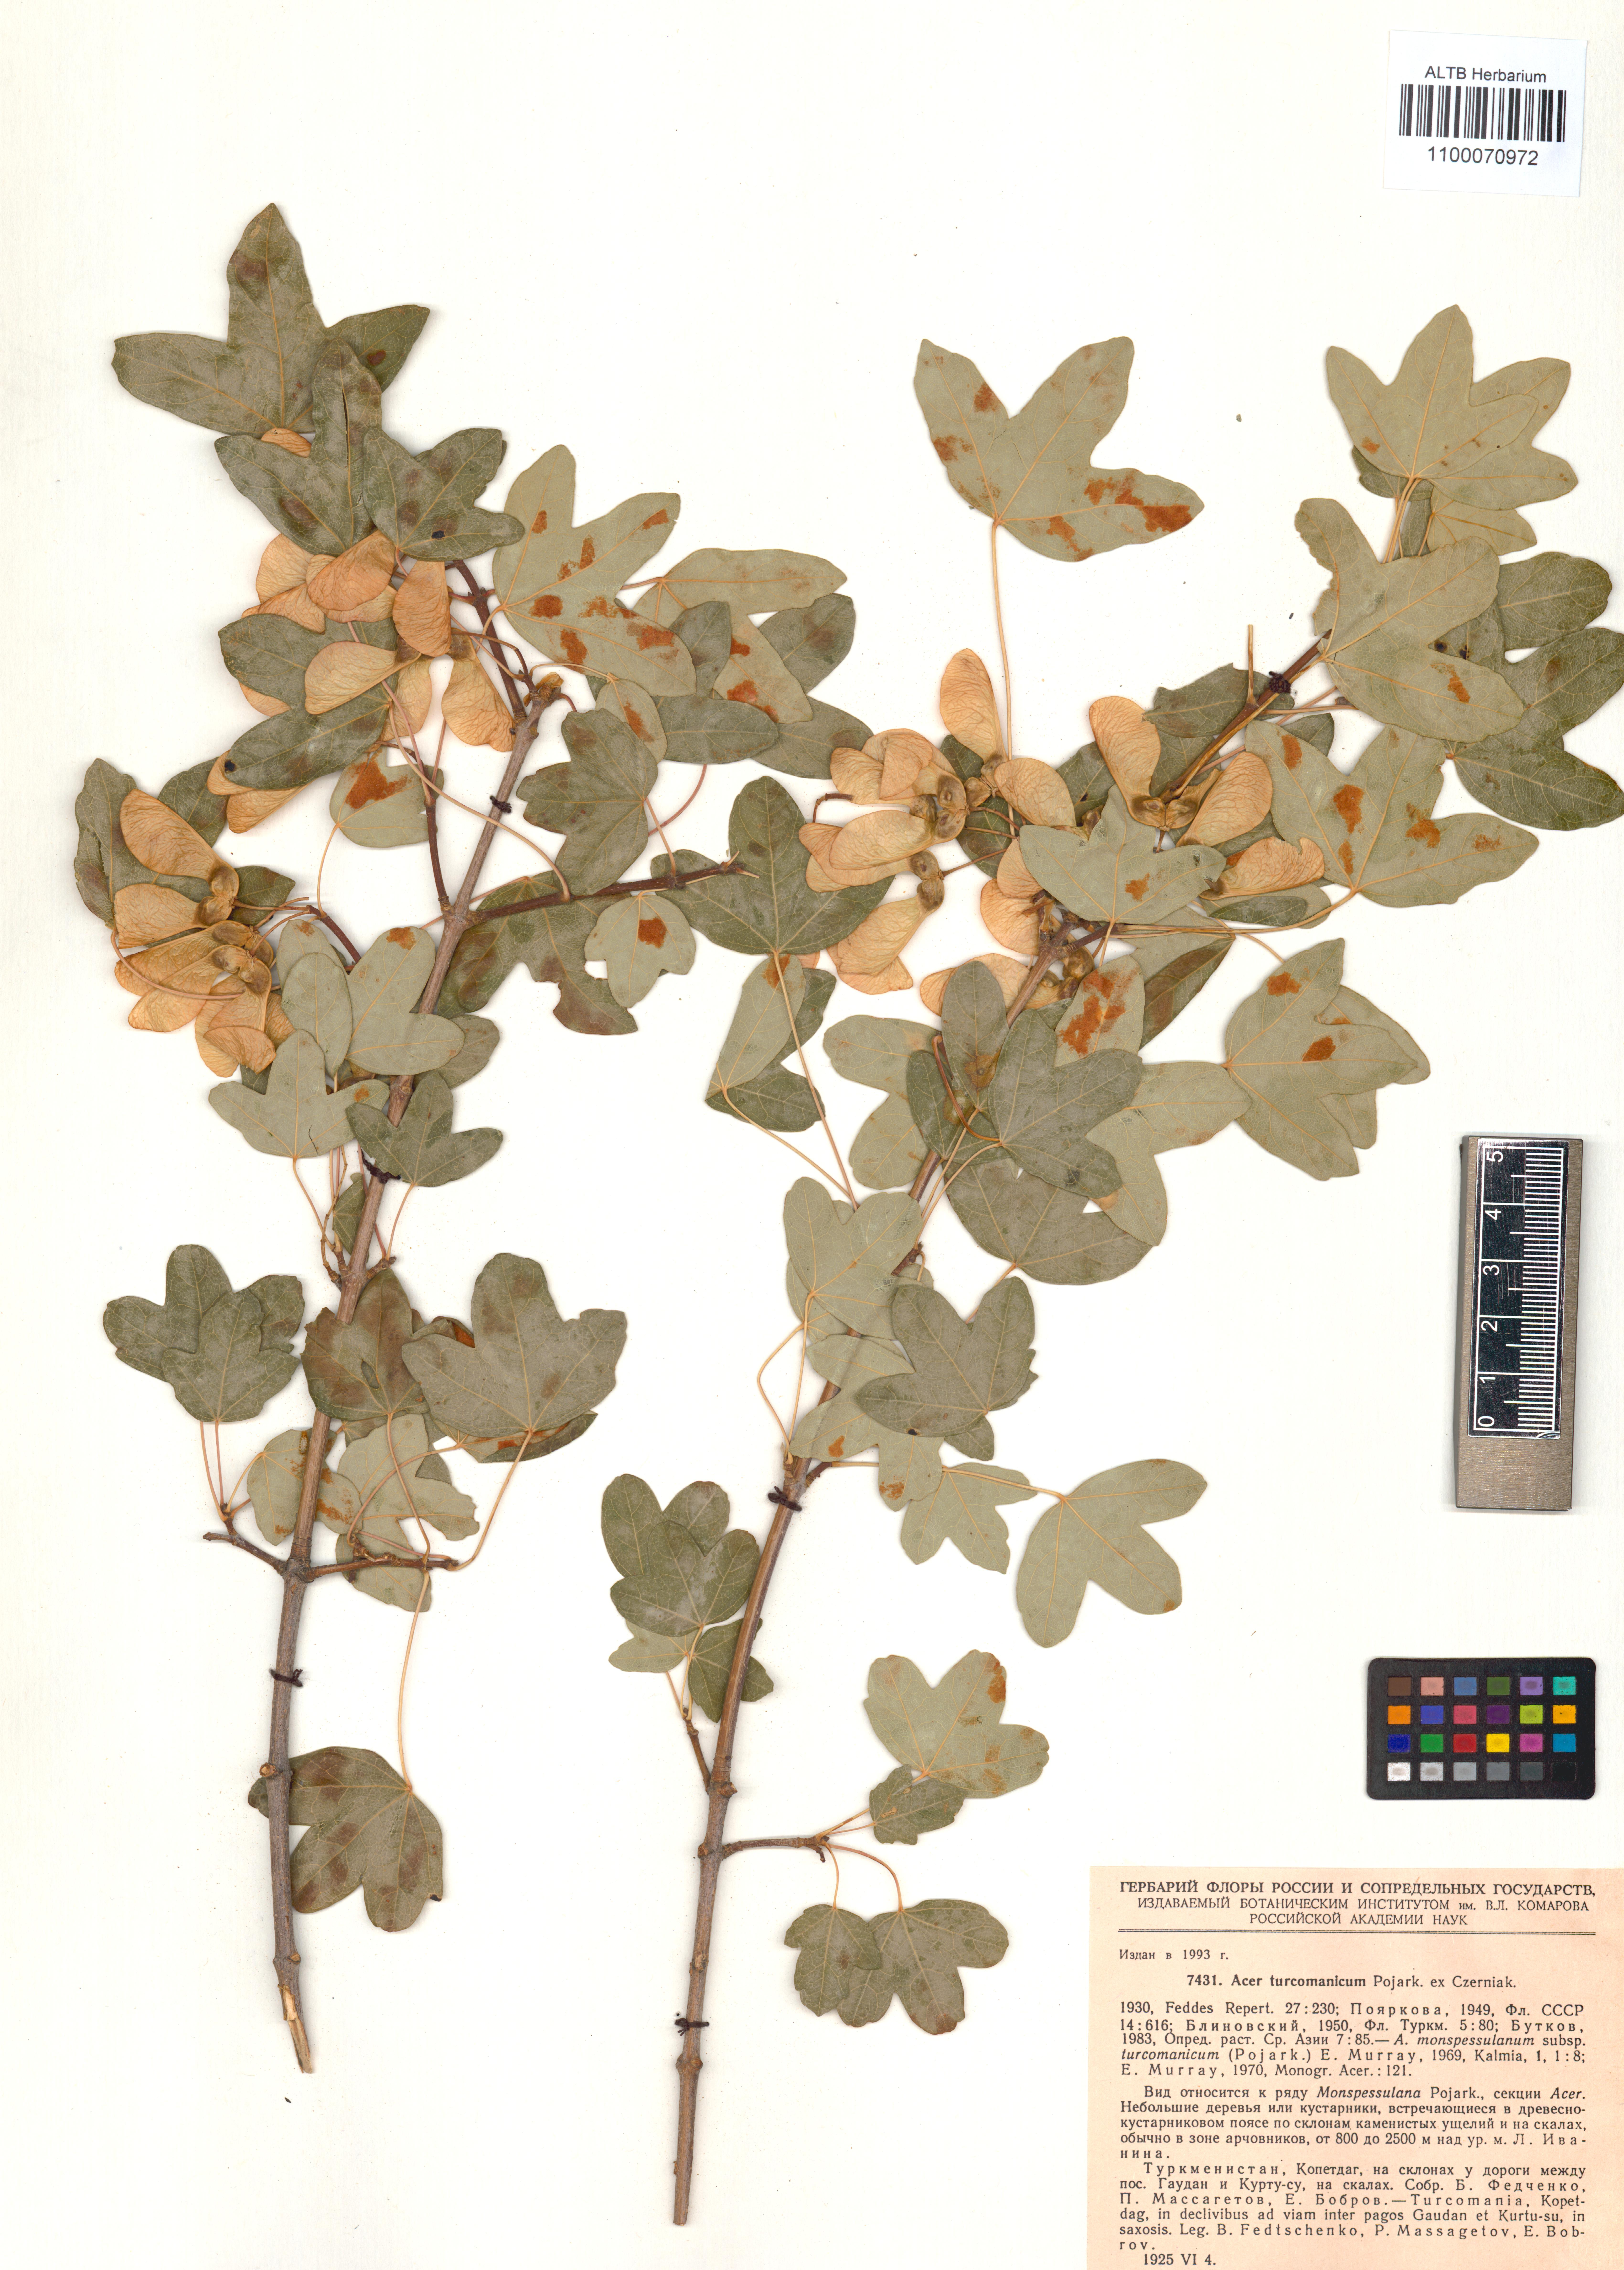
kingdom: Plantae
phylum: Tracheophyta
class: Magnoliopsida
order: Sapindales
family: Sapindaceae
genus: Acer
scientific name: Acer monspessulanum
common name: Montpellier maple
